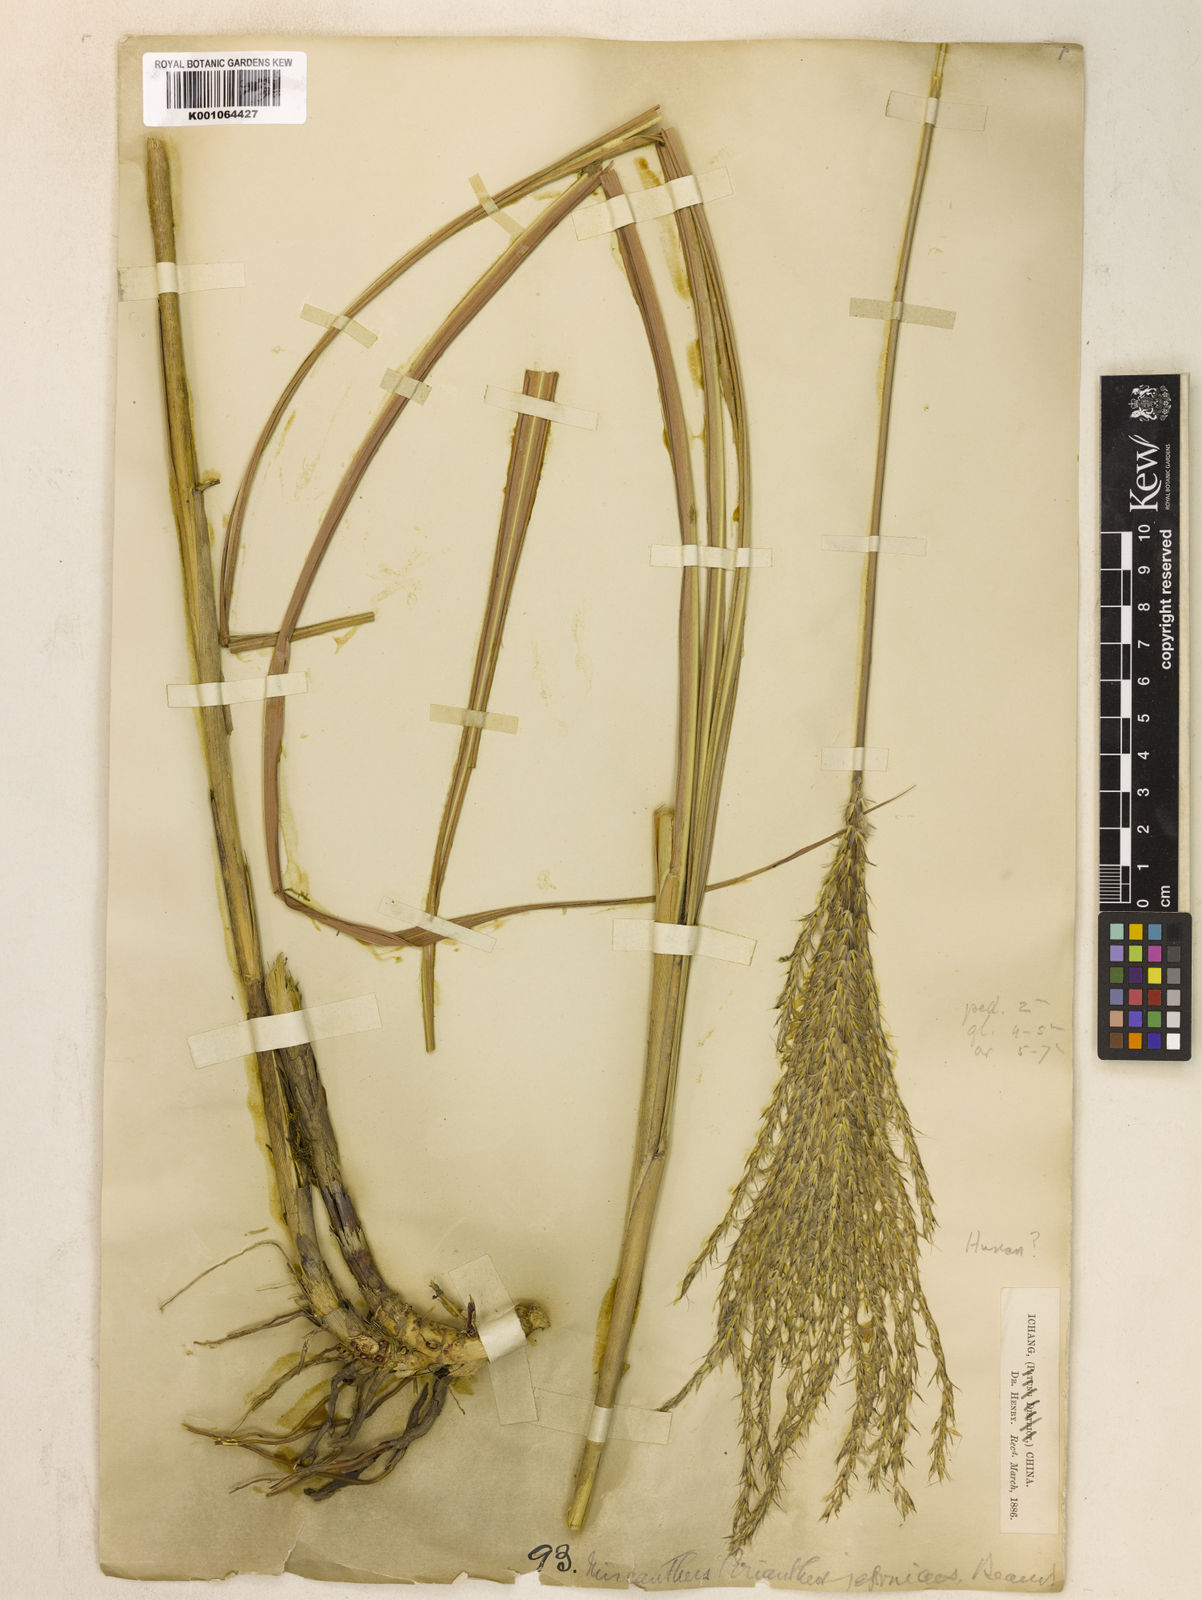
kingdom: Plantae
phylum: Tracheophyta
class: Liliopsida
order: Poales
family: Poaceae
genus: Miscanthus
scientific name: Miscanthus sinensis
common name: Chinese silvergrass
